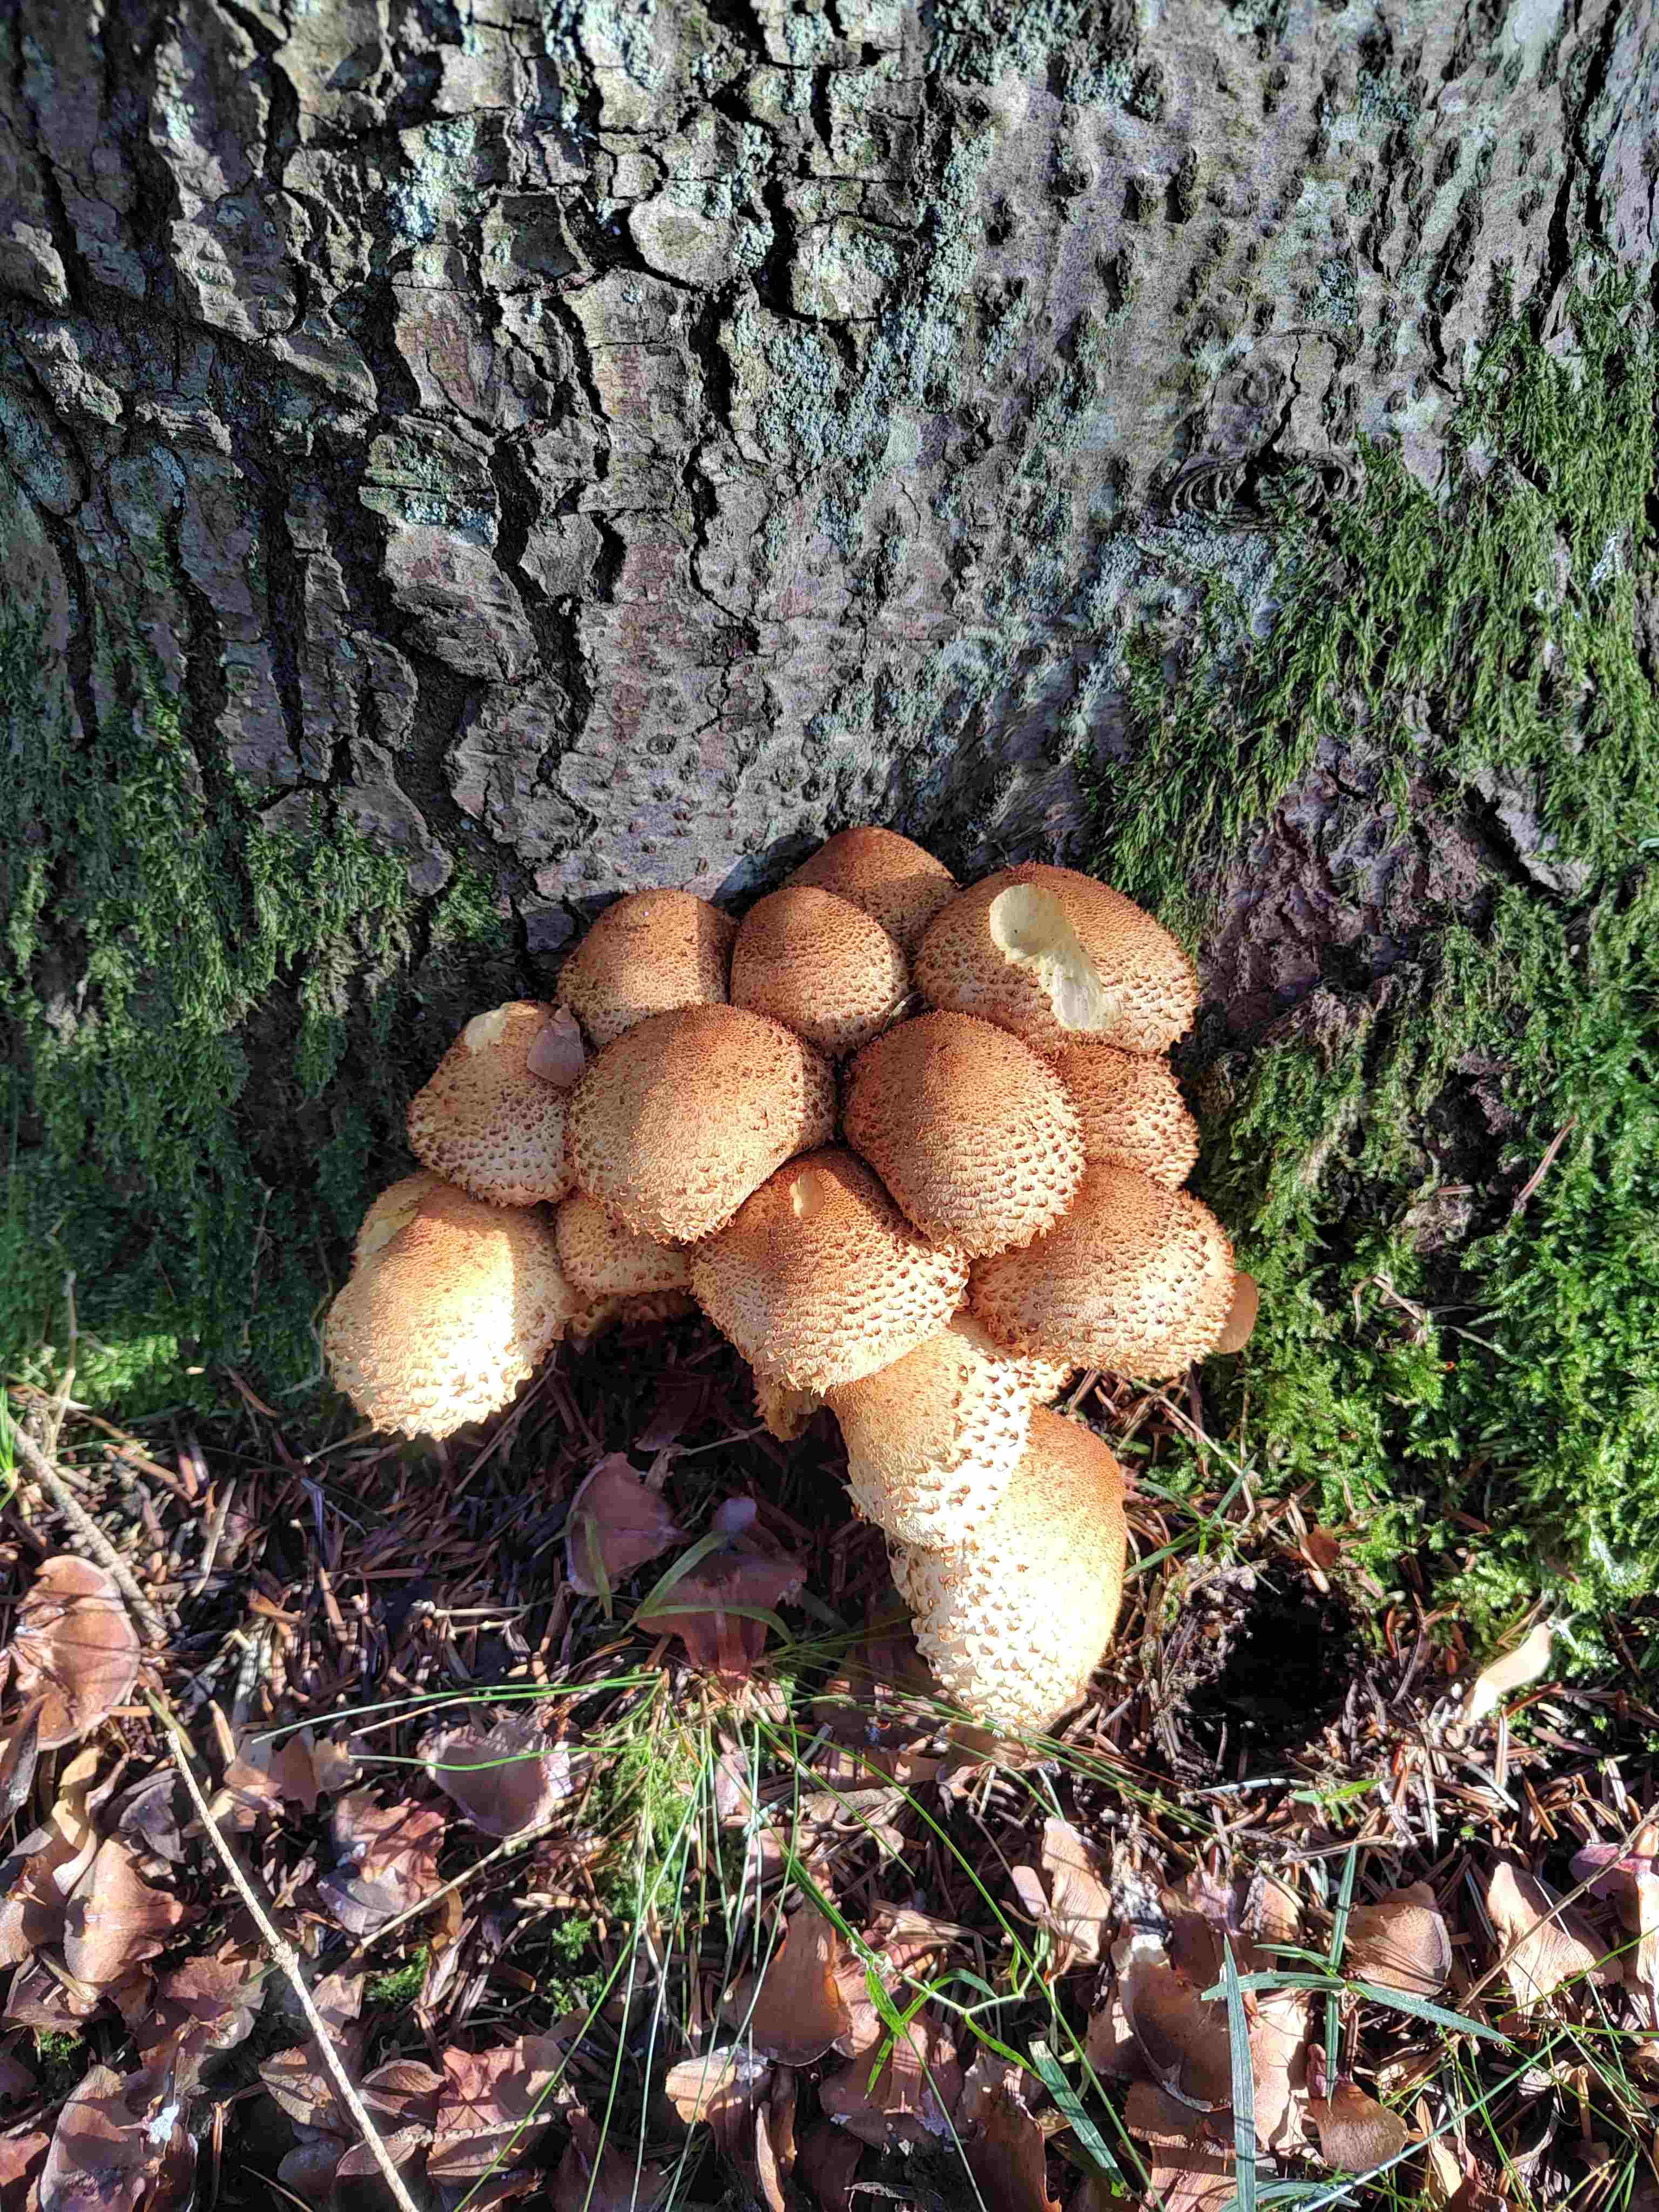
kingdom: Fungi
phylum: Basidiomycota
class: Agaricomycetes
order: Agaricales
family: Strophariaceae
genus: Pholiota
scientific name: Pholiota squarrosa
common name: krumskællet skælhat
